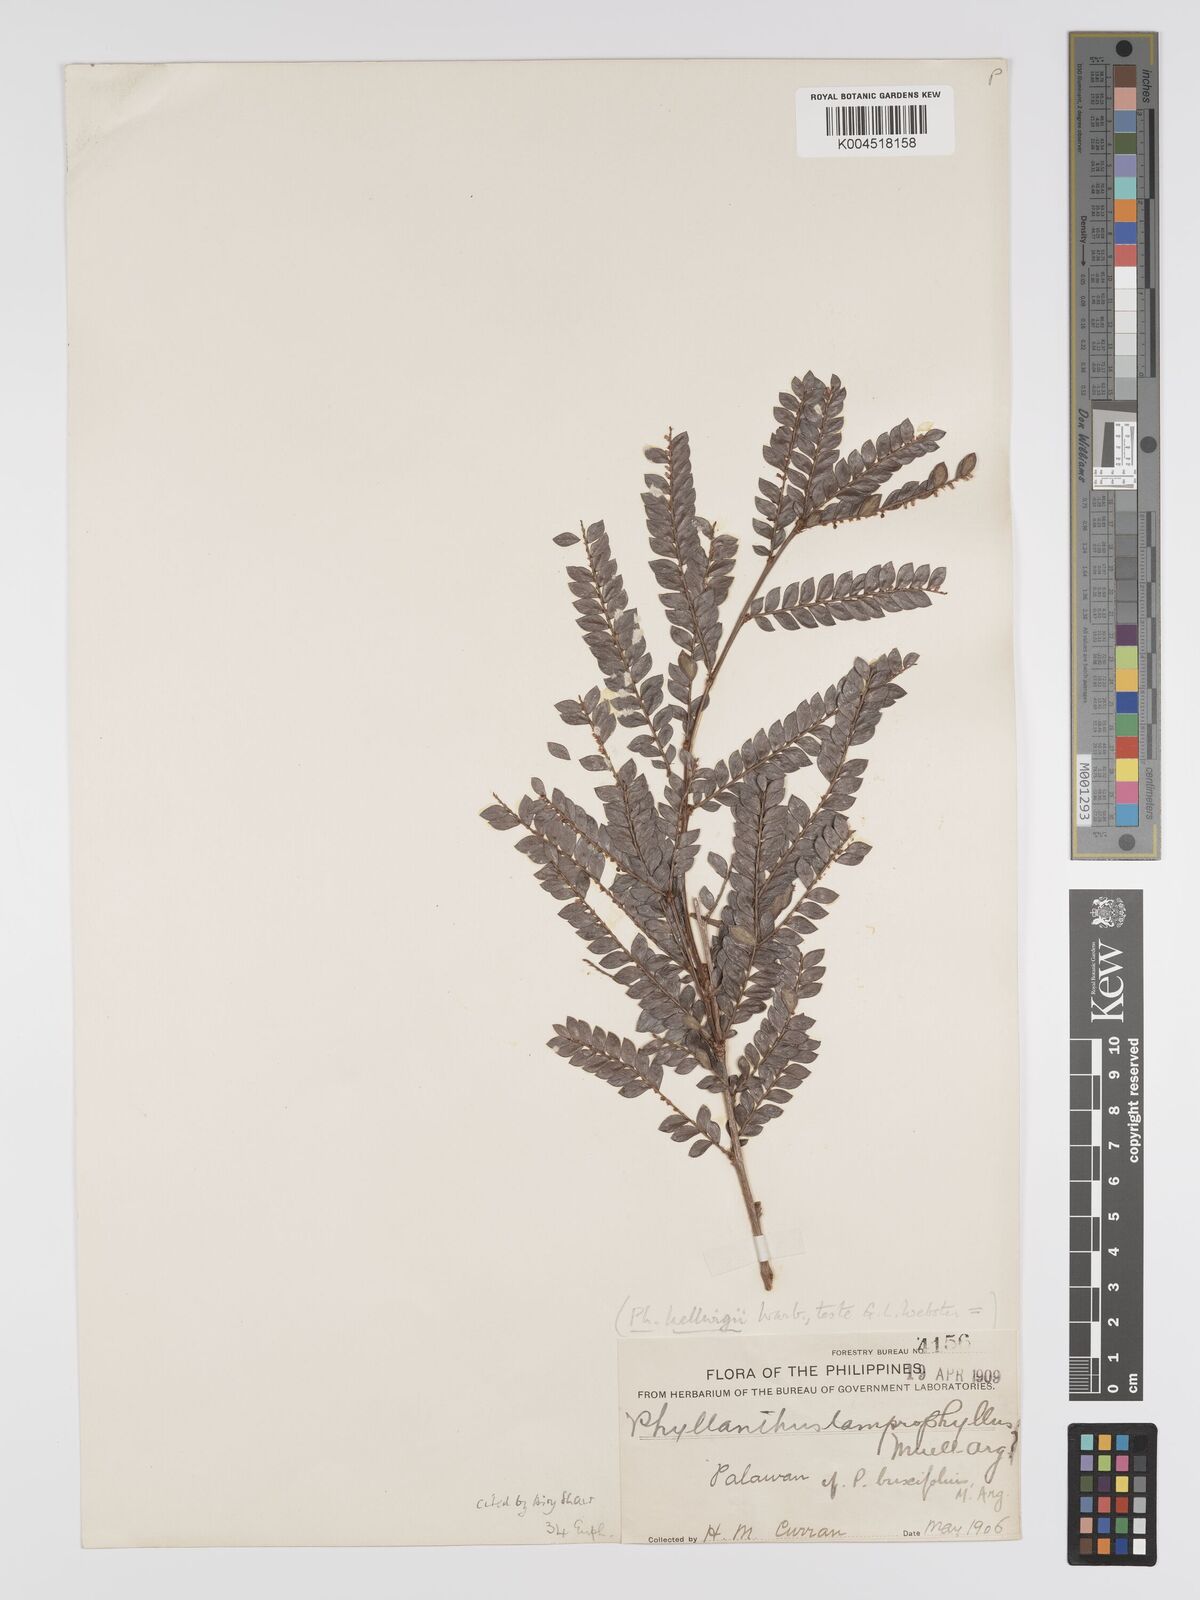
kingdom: Plantae
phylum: Tracheophyta
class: Magnoliopsida
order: Malpighiales
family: Phyllanthaceae
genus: Glochidion
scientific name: Glochidion lamprophyllum
